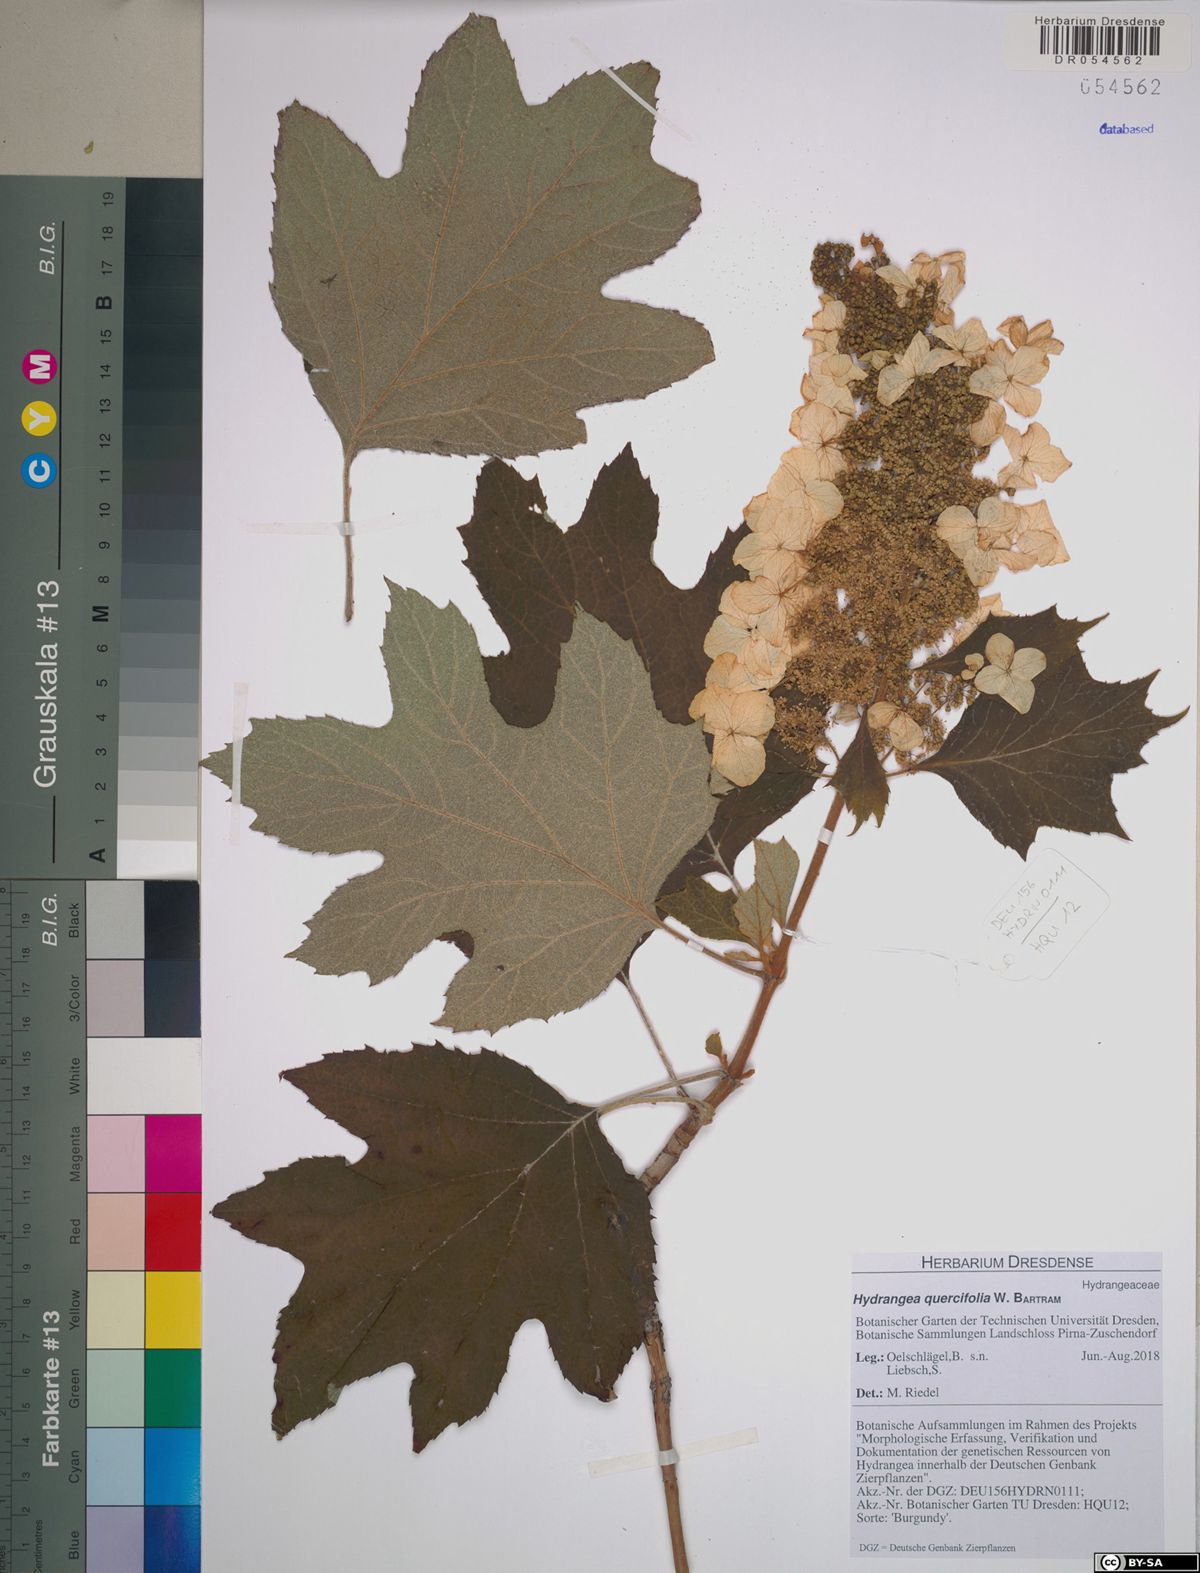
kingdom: Plantae
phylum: Tracheophyta
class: Magnoliopsida
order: Cornales
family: Hydrangeaceae
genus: Hydrangea
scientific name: Hydrangea quercifolia
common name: Oak-leaf hydrangea
